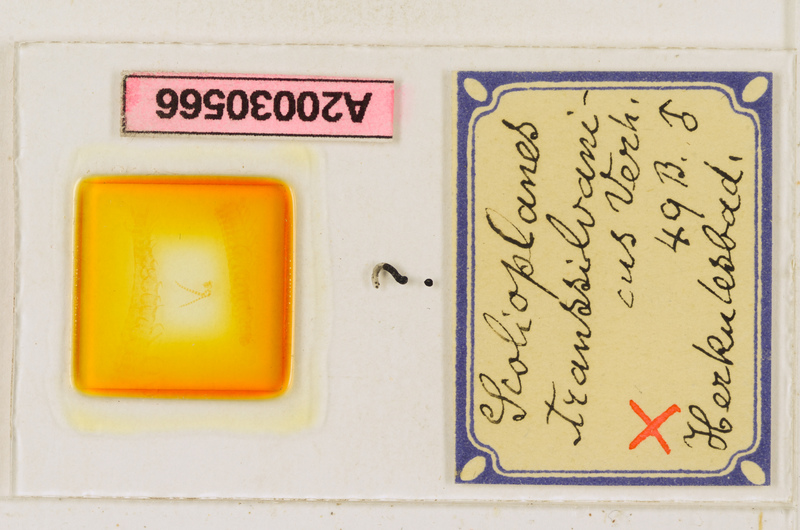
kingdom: Animalia
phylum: Arthropoda
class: Chilopoda
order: Geophilomorpha
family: Linotaeniidae
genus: Strigamia
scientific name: Strigamia transsilvanica
